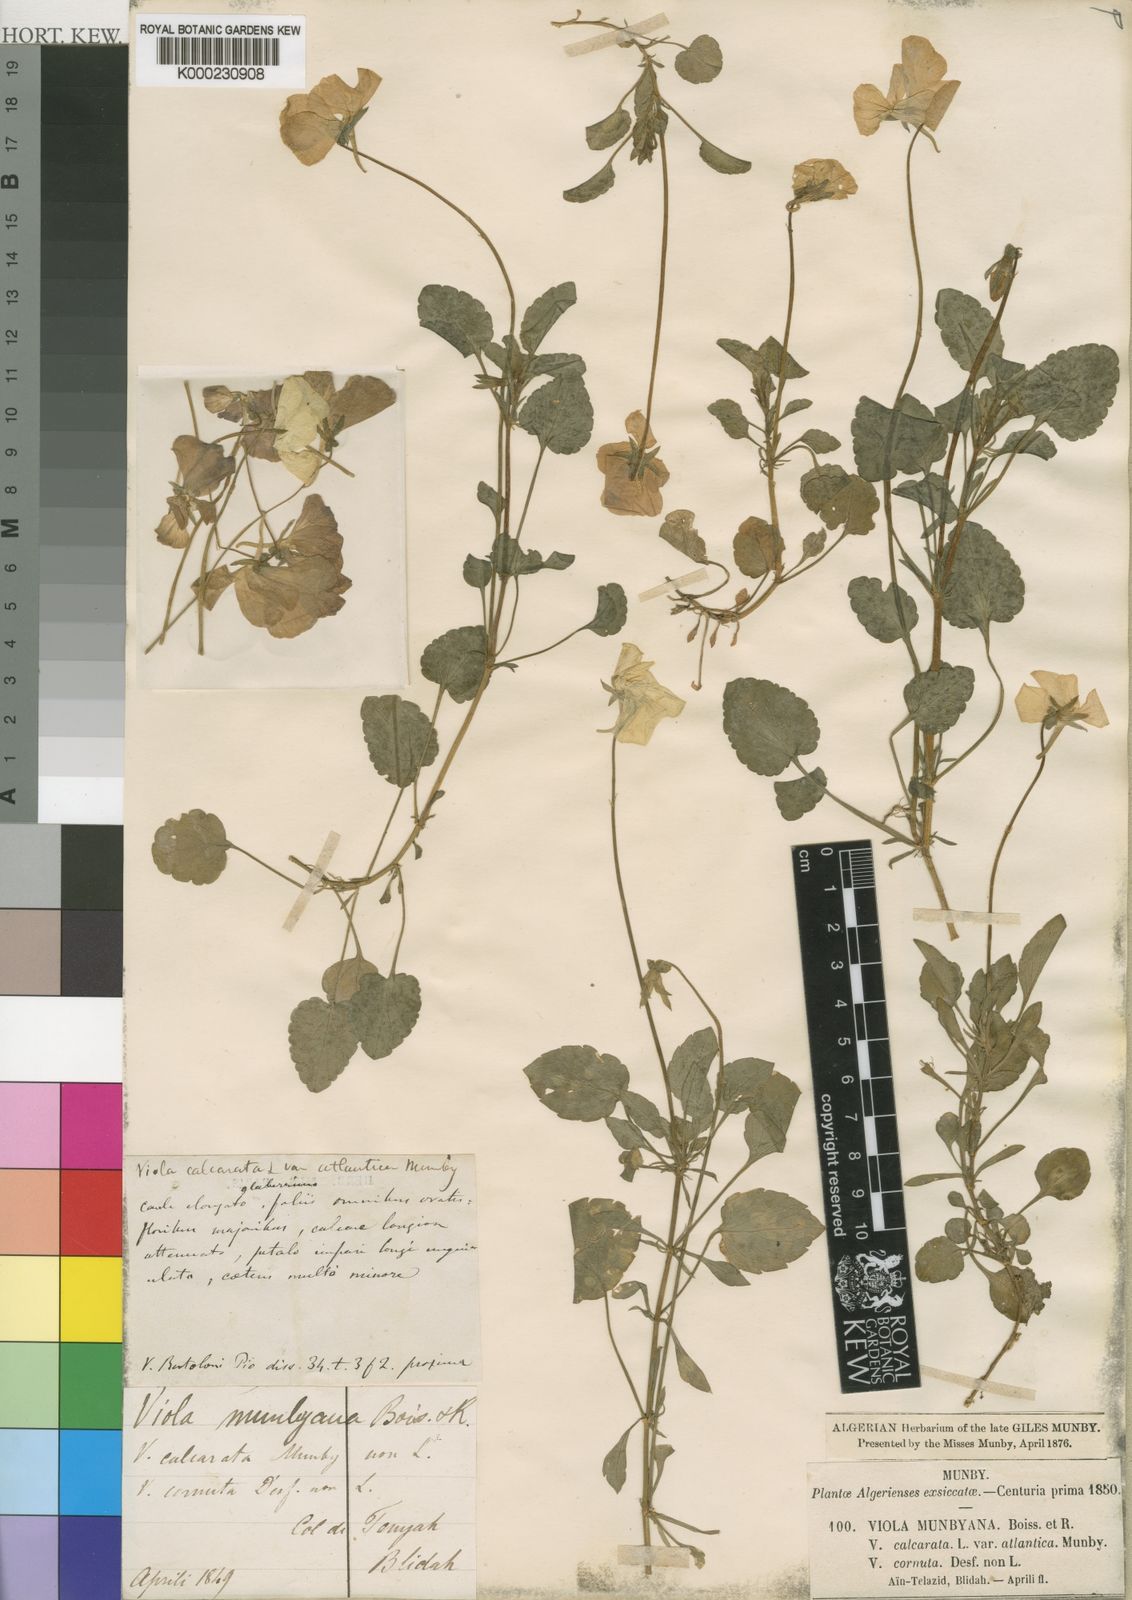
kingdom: Plantae
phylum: Tracheophyta
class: Magnoliopsida
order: Malpighiales
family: Violaceae
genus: Viola
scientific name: Viola munbyana
